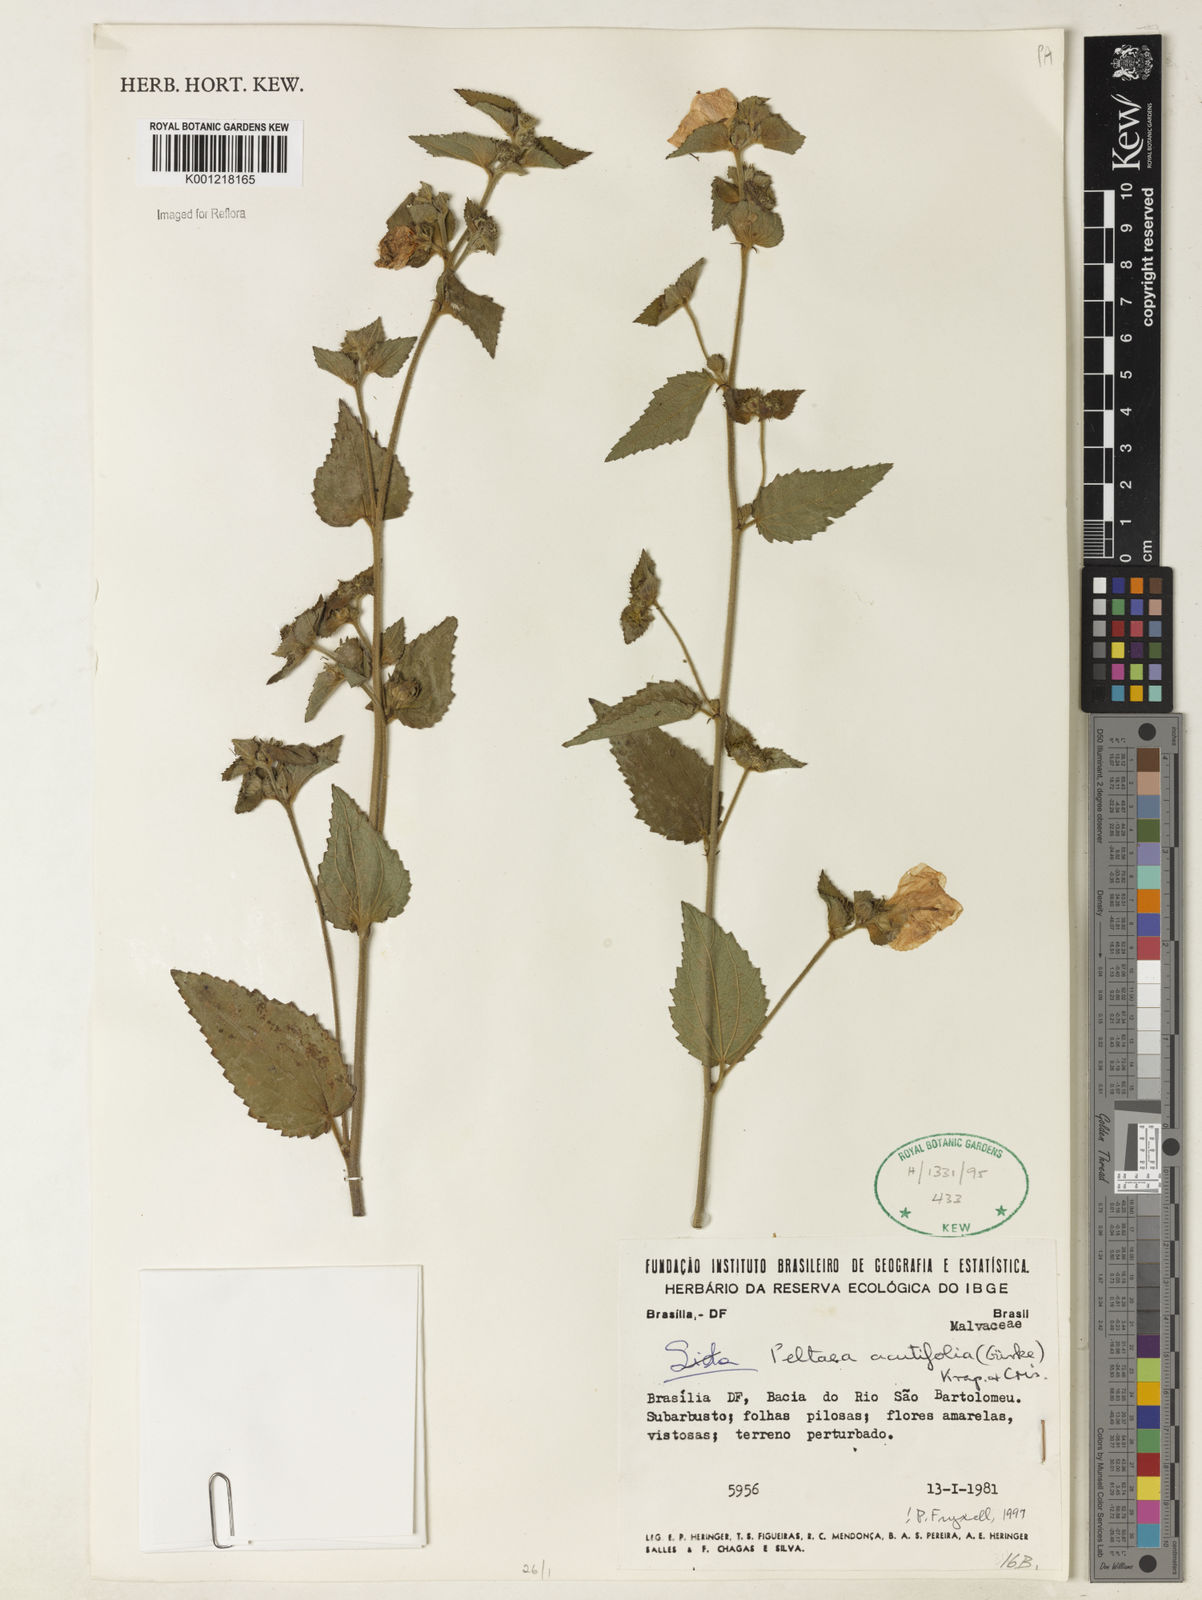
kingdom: Plantae
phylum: Tracheophyta
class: Magnoliopsida
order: Malvales
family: Malvaceae
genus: Peltaea
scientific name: Peltaea
